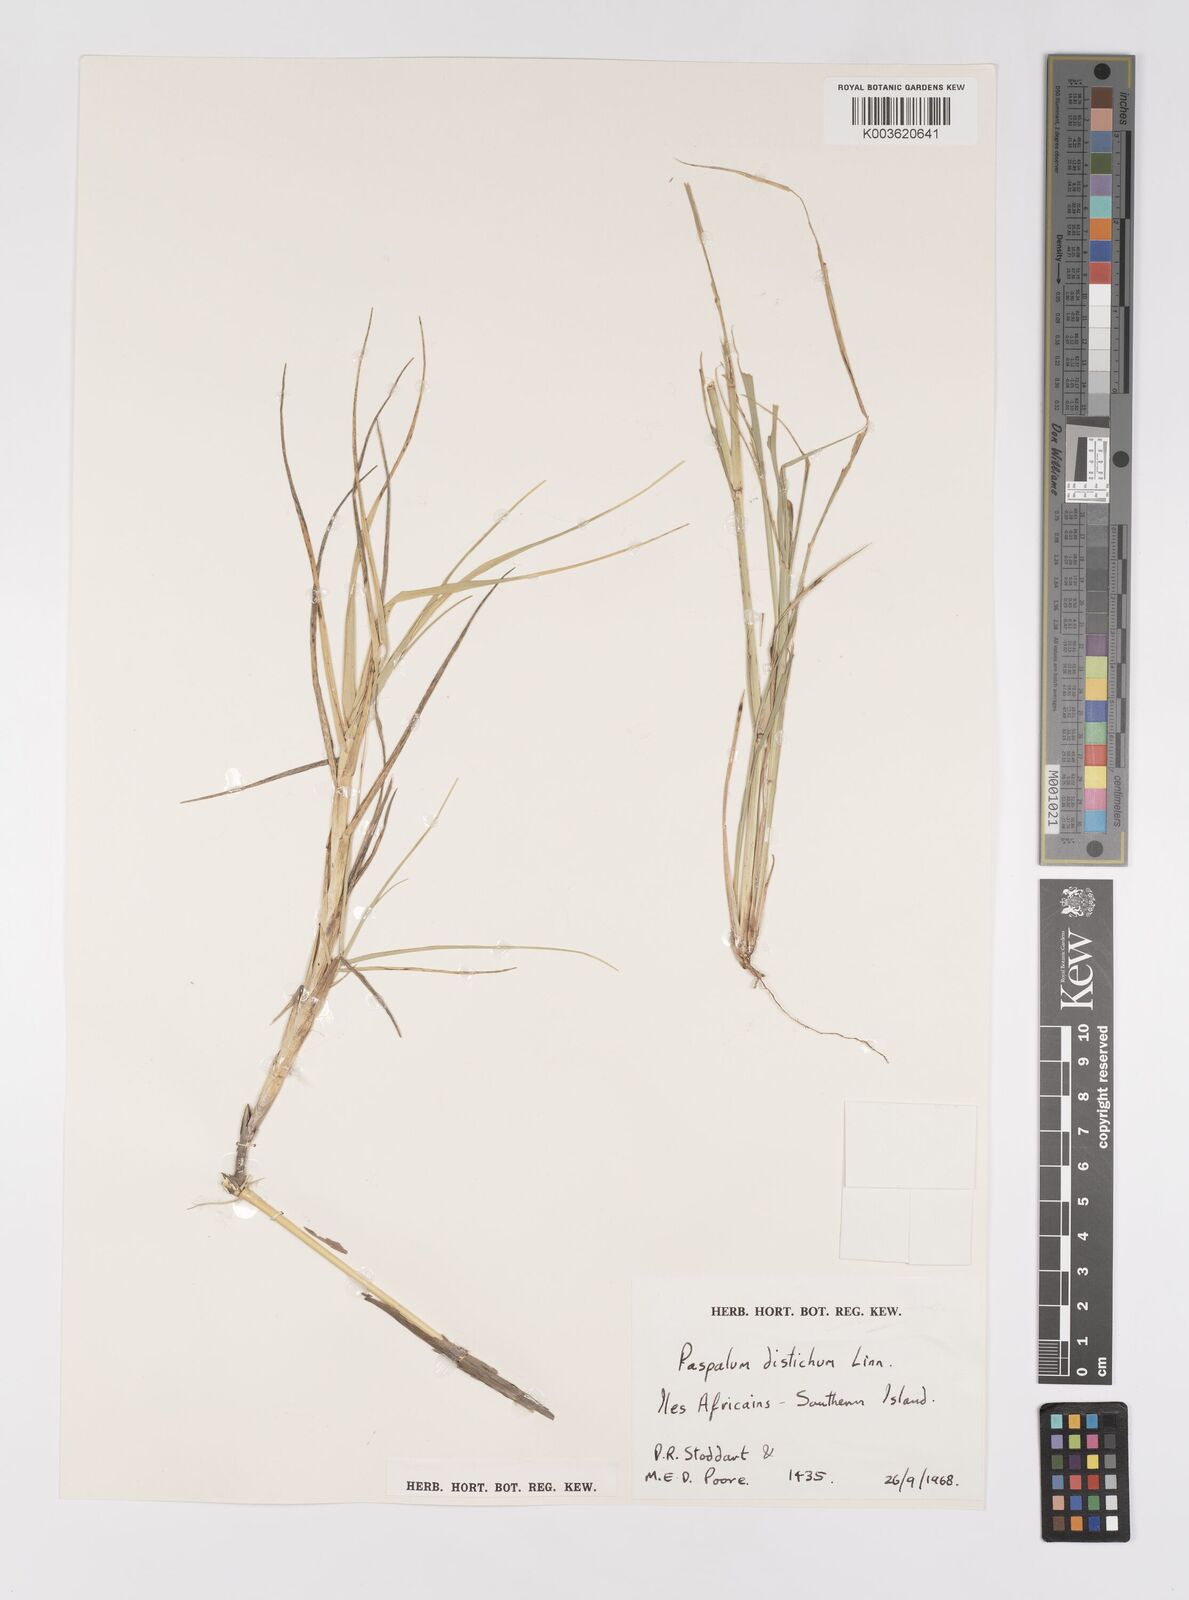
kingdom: Plantae
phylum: Tracheophyta
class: Liliopsida
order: Poales
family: Poaceae
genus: Paspalum
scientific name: Paspalum vaginatum
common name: Seashore paspalum
